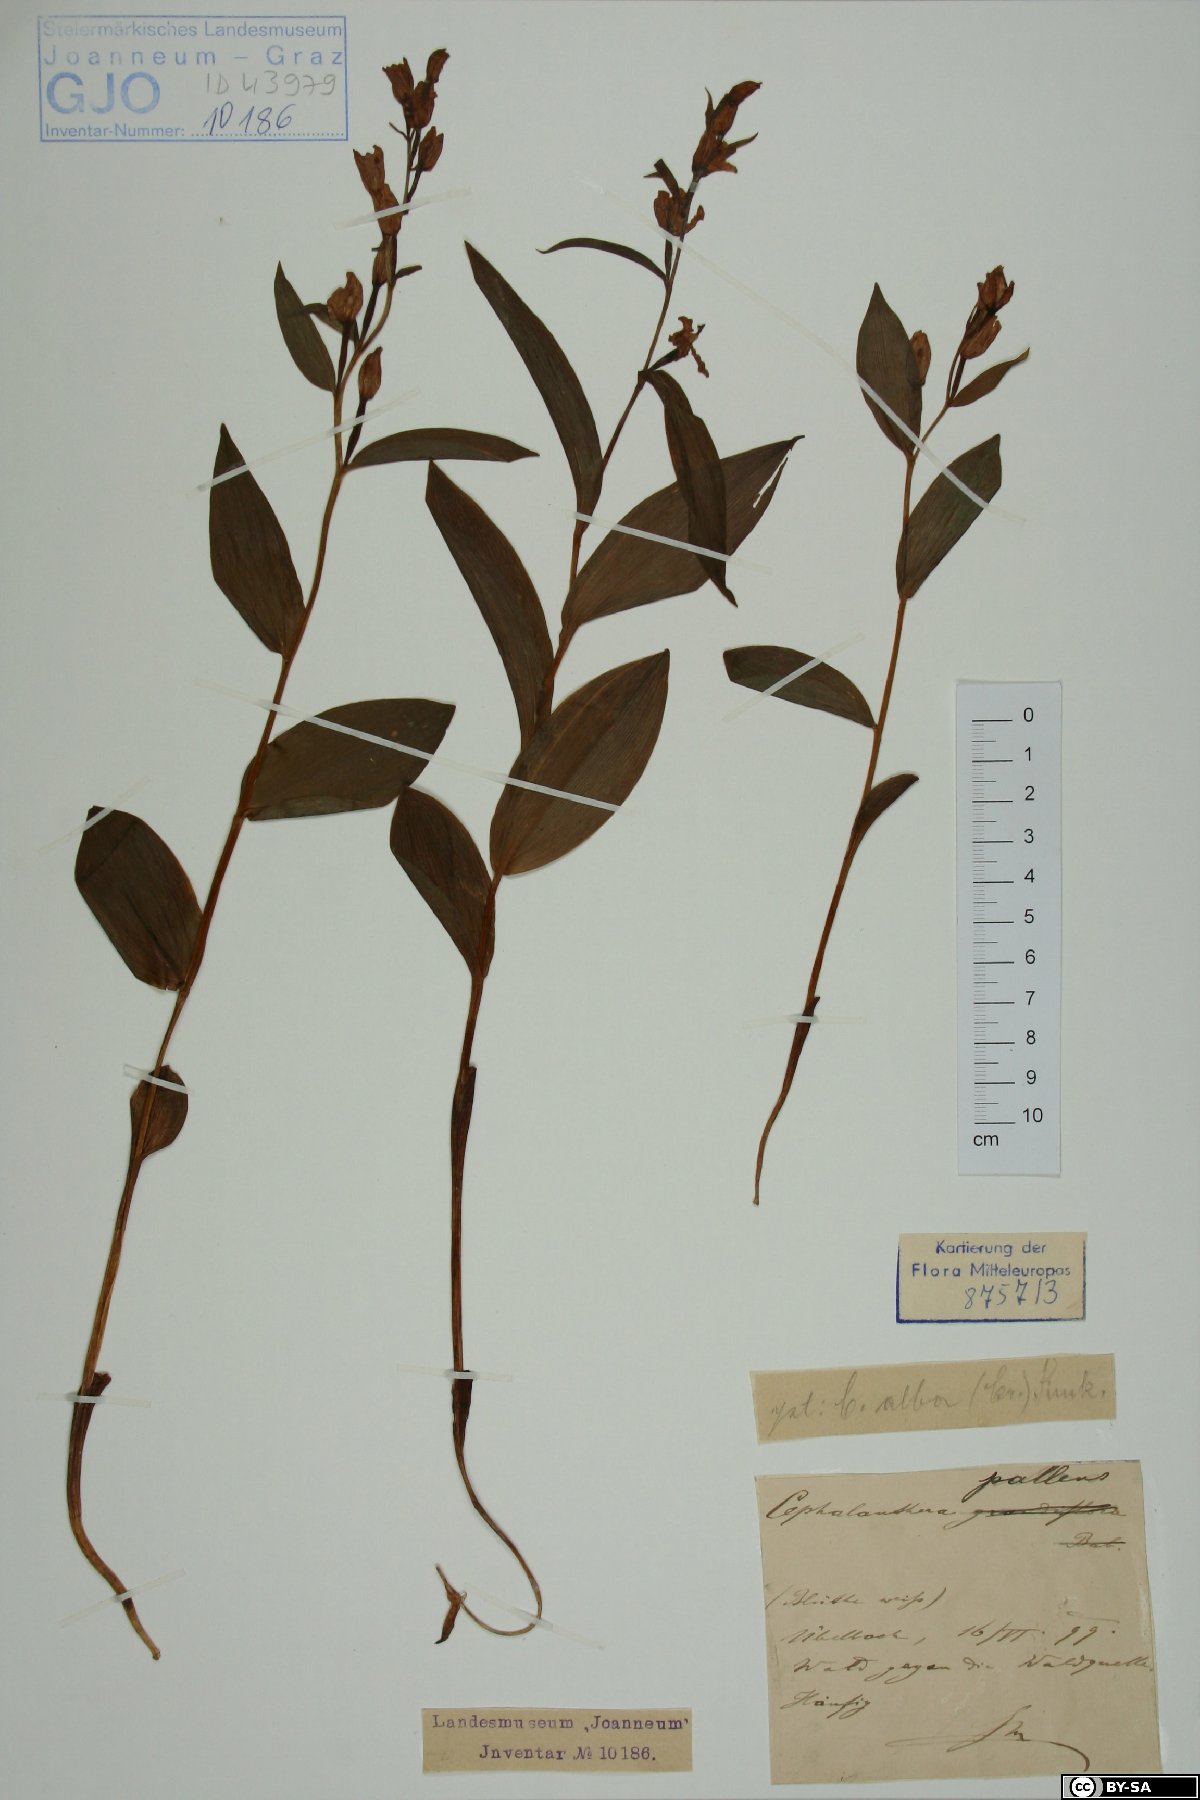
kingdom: Plantae
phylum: Tracheophyta
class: Liliopsida
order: Asparagales
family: Orchidaceae
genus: Cephalanthera
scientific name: Cephalanthera longifolia
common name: Narrow-leaved helleborine
